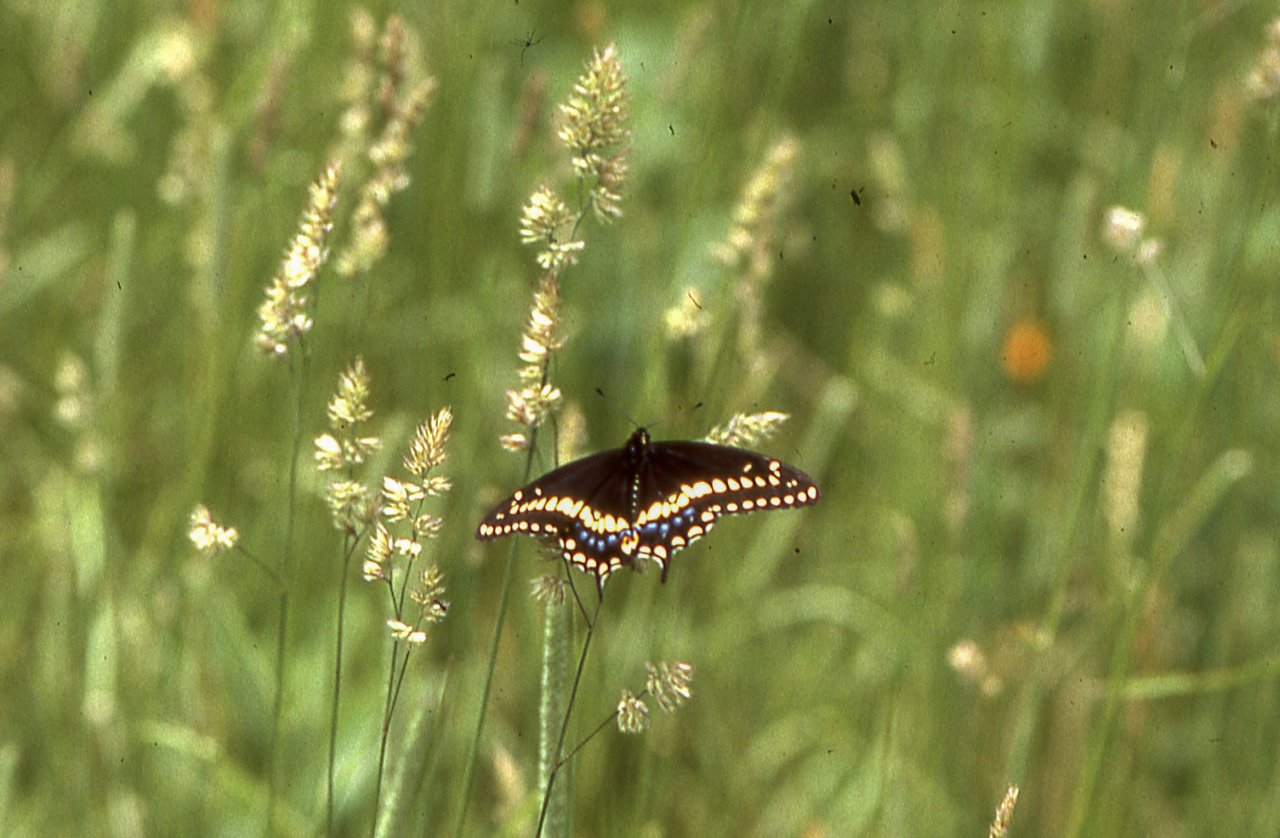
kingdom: Animalia
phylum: Arthropoda
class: Insecta
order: Lepidoptera
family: Papilionidae
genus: Papilio
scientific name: Papilio polyxenes
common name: Black Swallowtail
